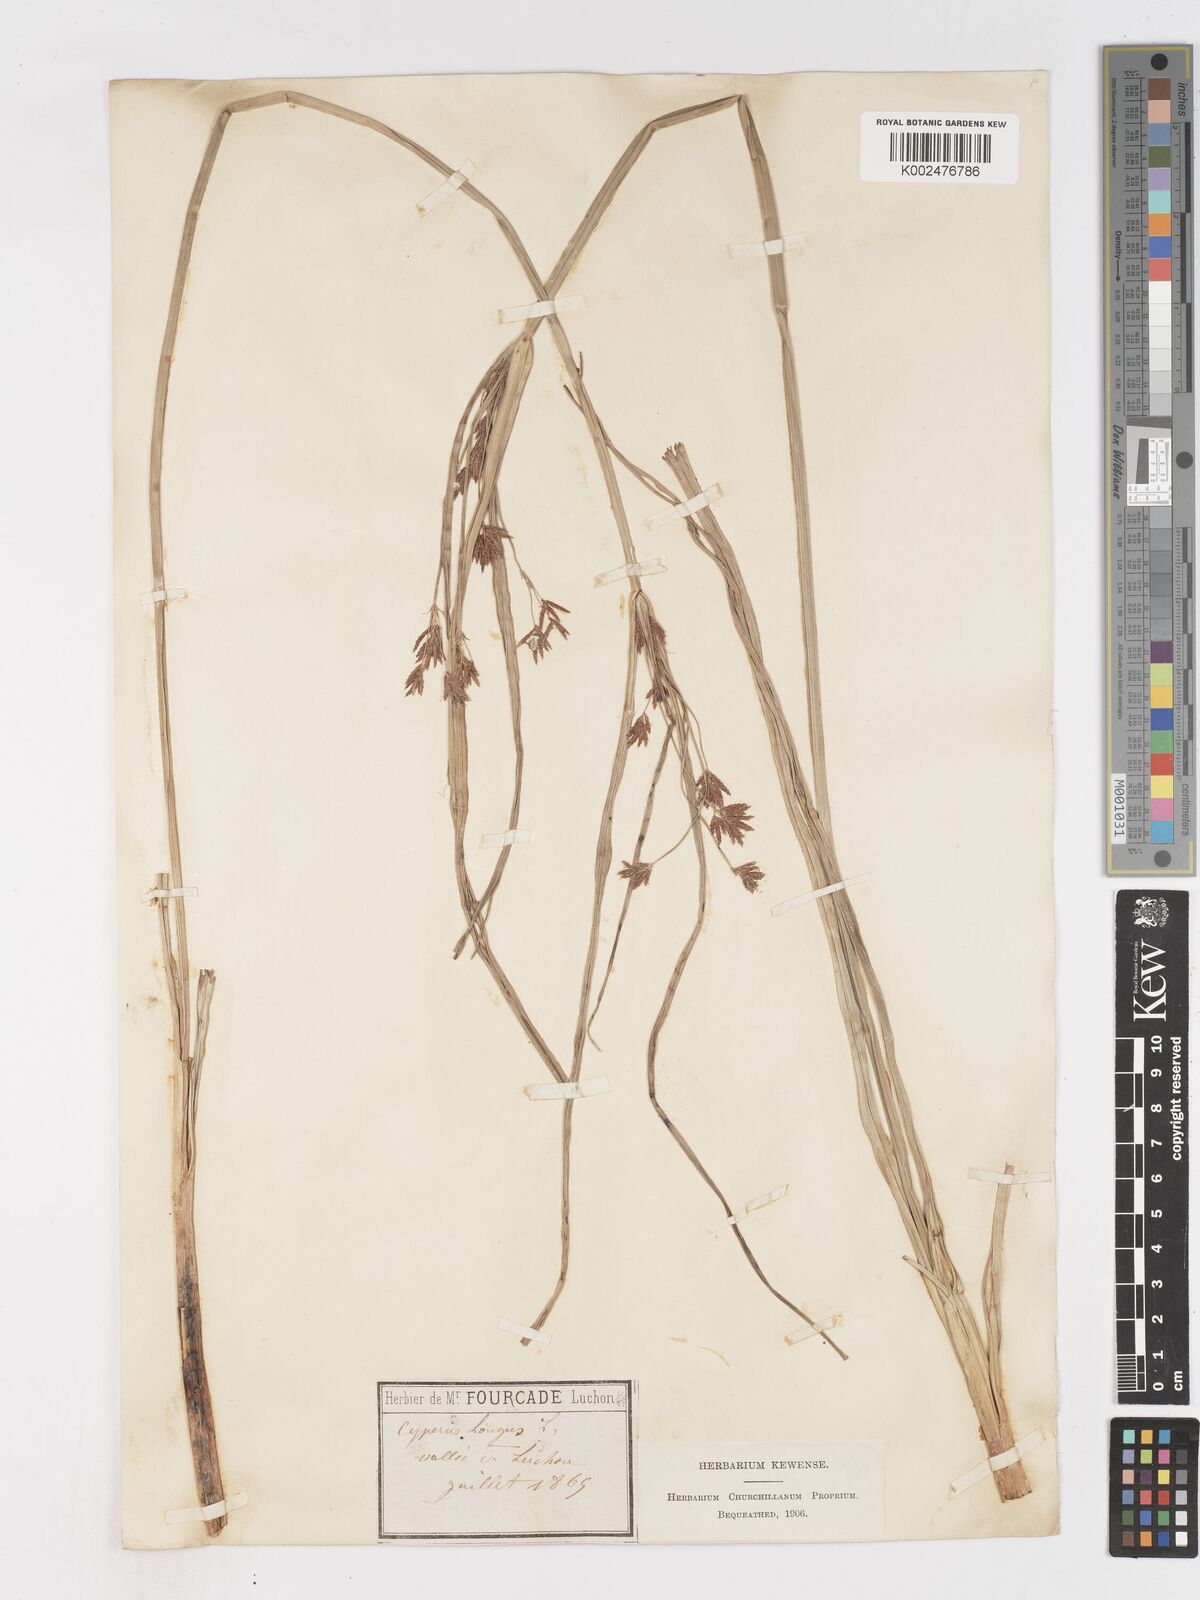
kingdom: Plantae
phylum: Tracheophyta
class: Liliopsida
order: Poales
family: Cyperaceae
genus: Cyperus
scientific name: Cyperus longus
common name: Galingale
